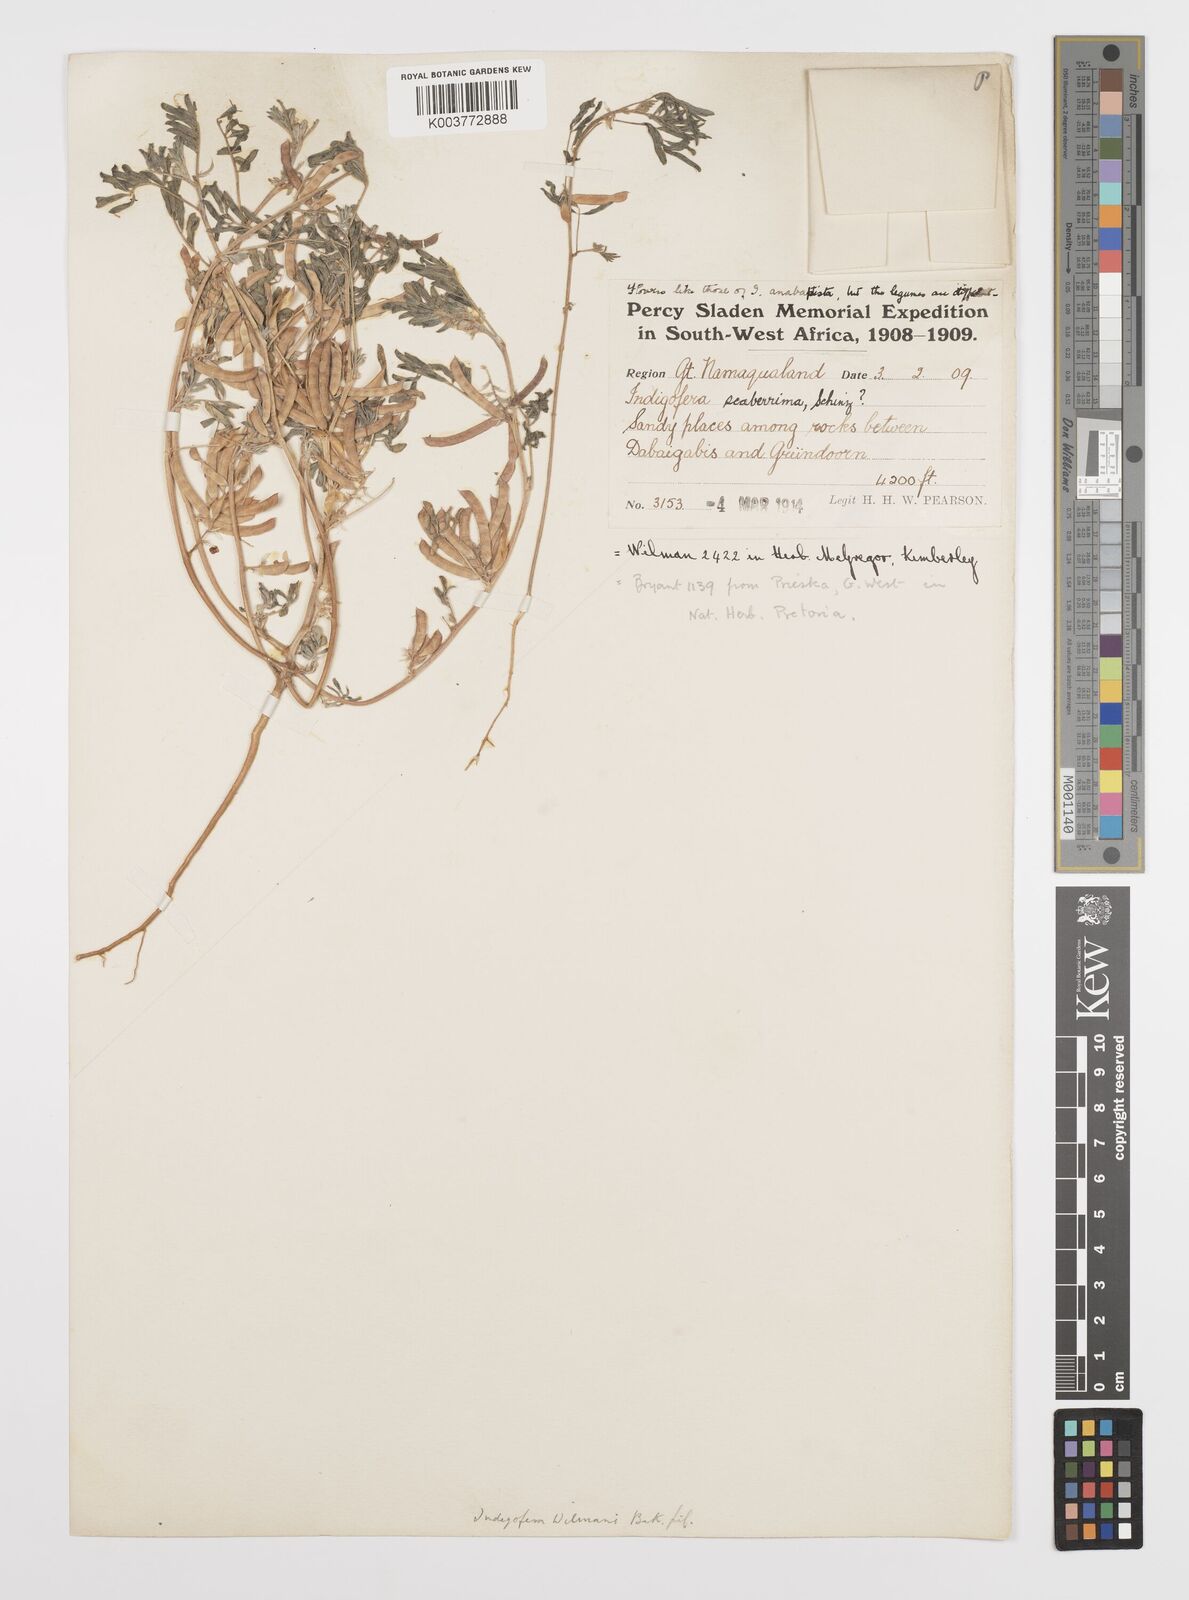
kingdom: Plantae
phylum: Tracheophyta
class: Magnoliopsida
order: Fabales
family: Fabaceae
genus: Indigofera
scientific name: Indigofera damarana
